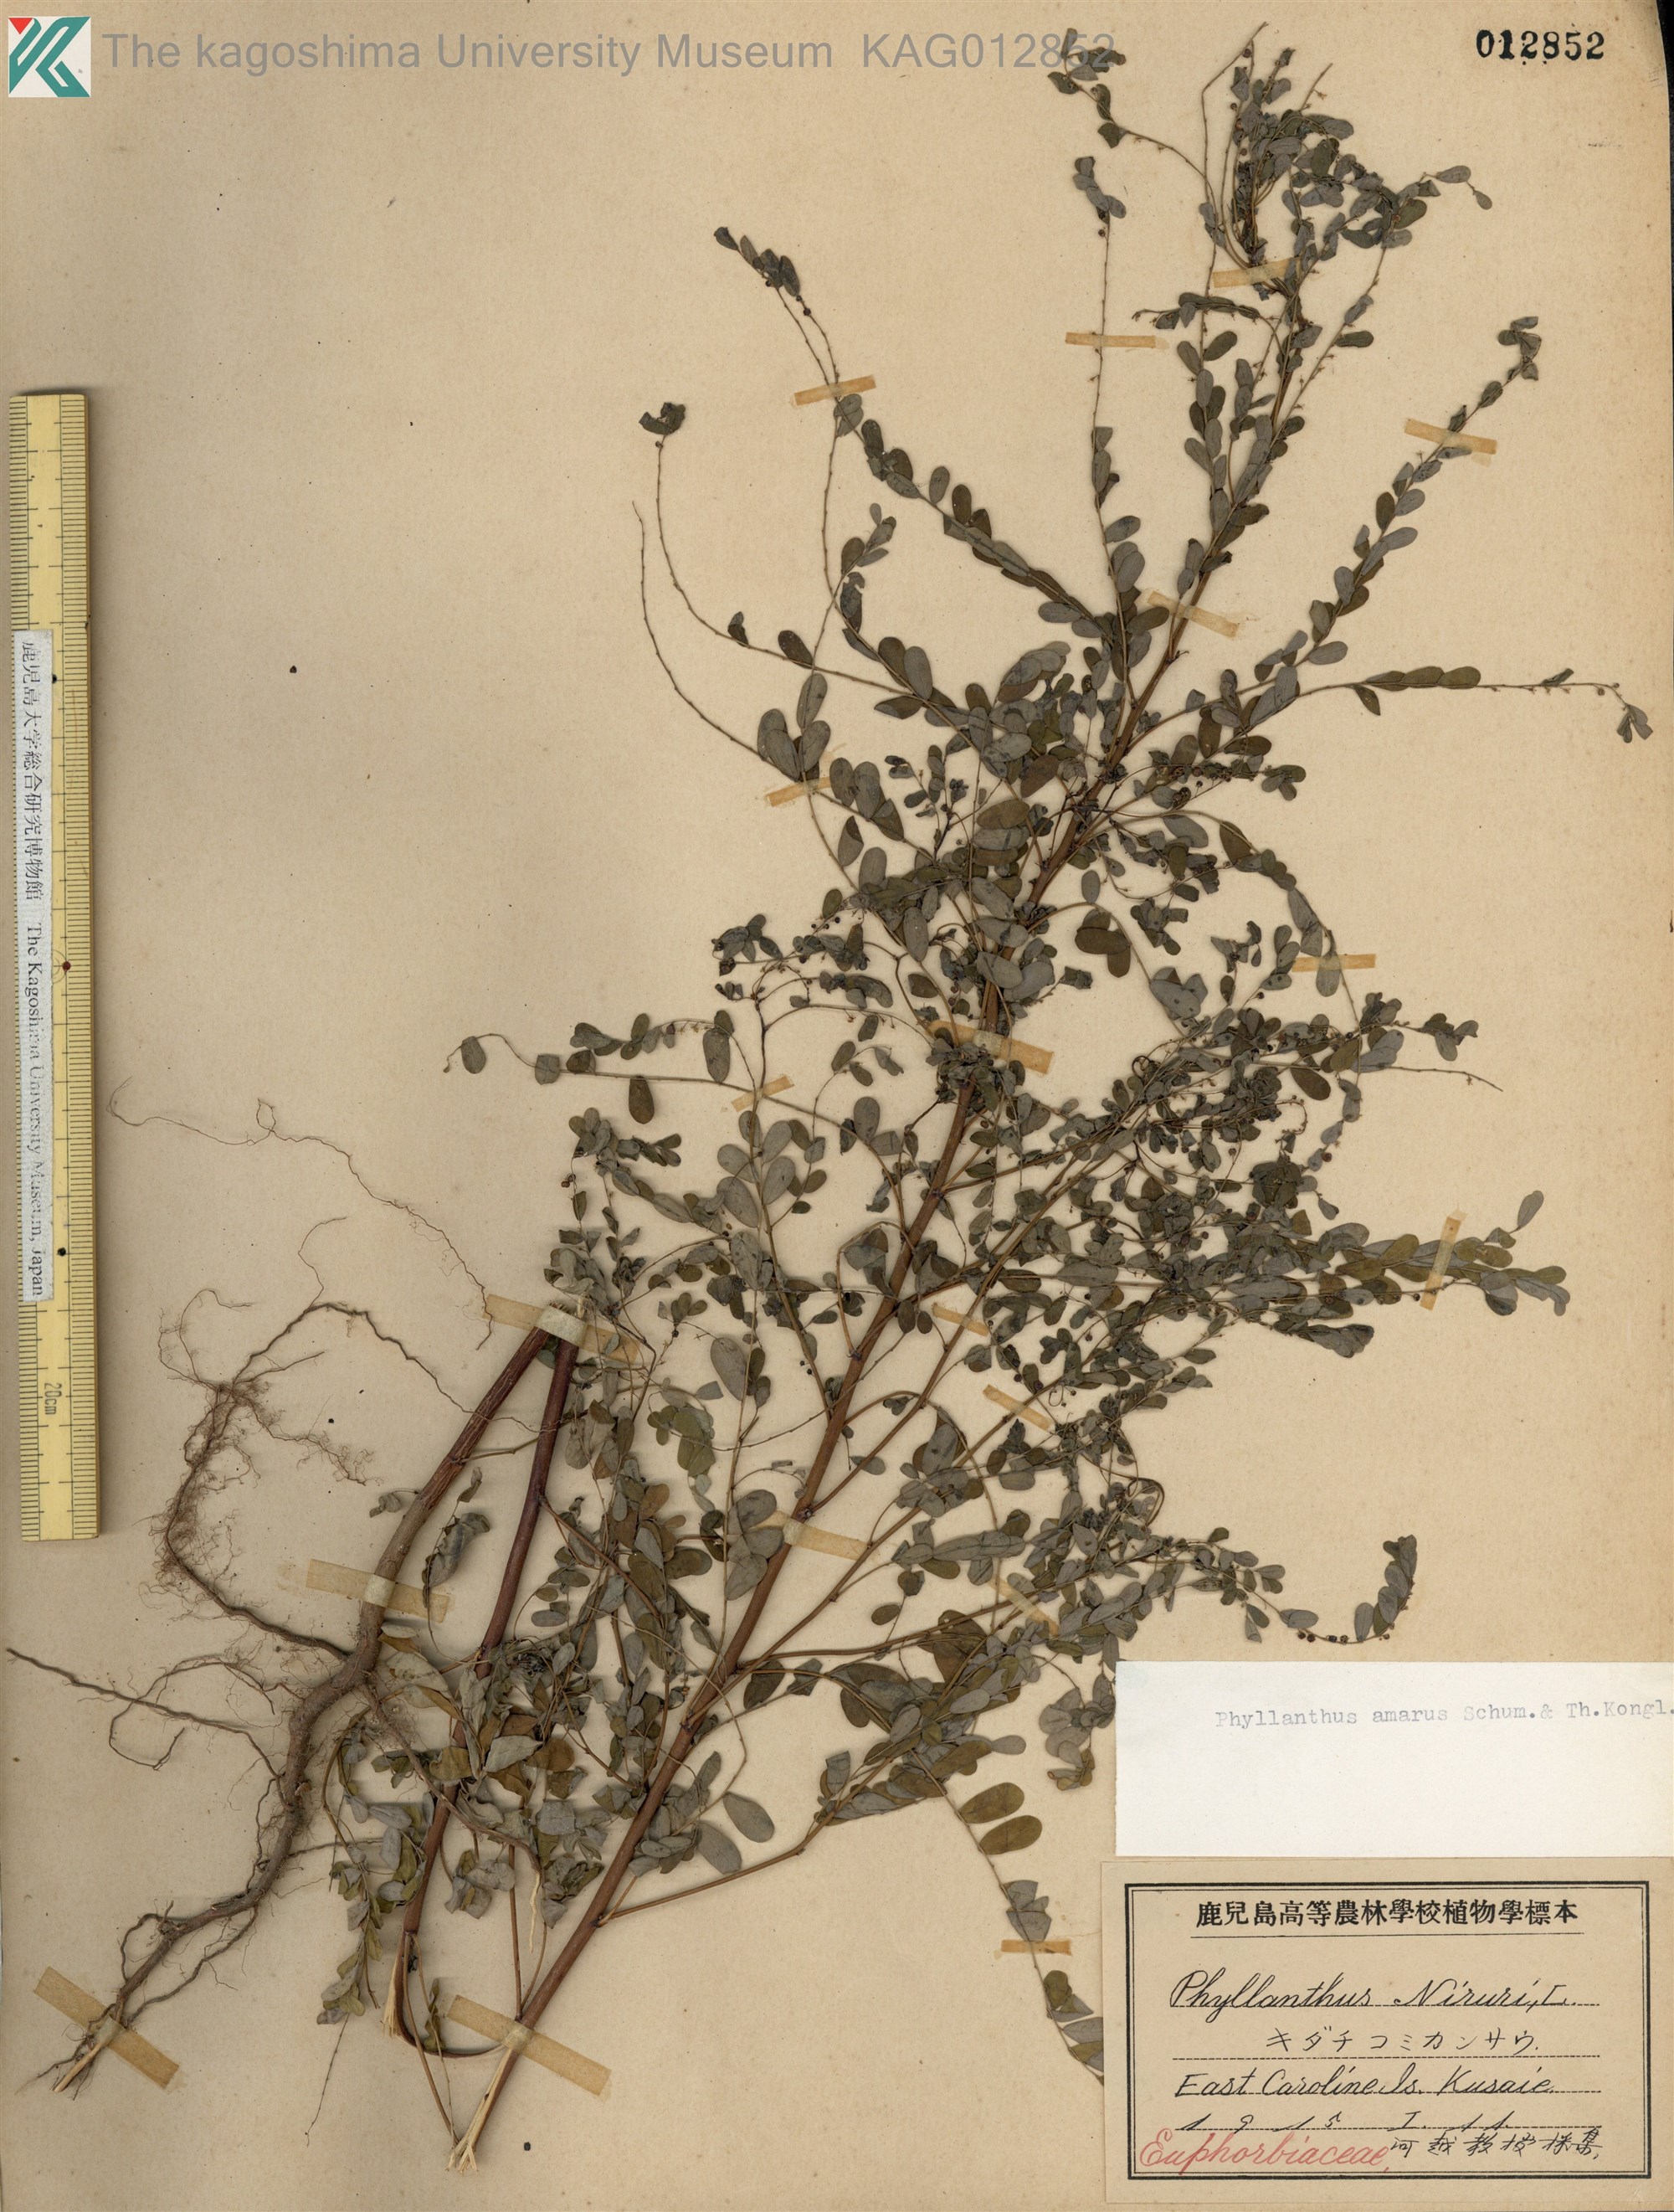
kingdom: Plantae
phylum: Tracheophyta
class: Magnoliopsida
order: Malpighiales
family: Phyllanthaceae
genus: Phyllanthus
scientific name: Phyllanthus amarus
